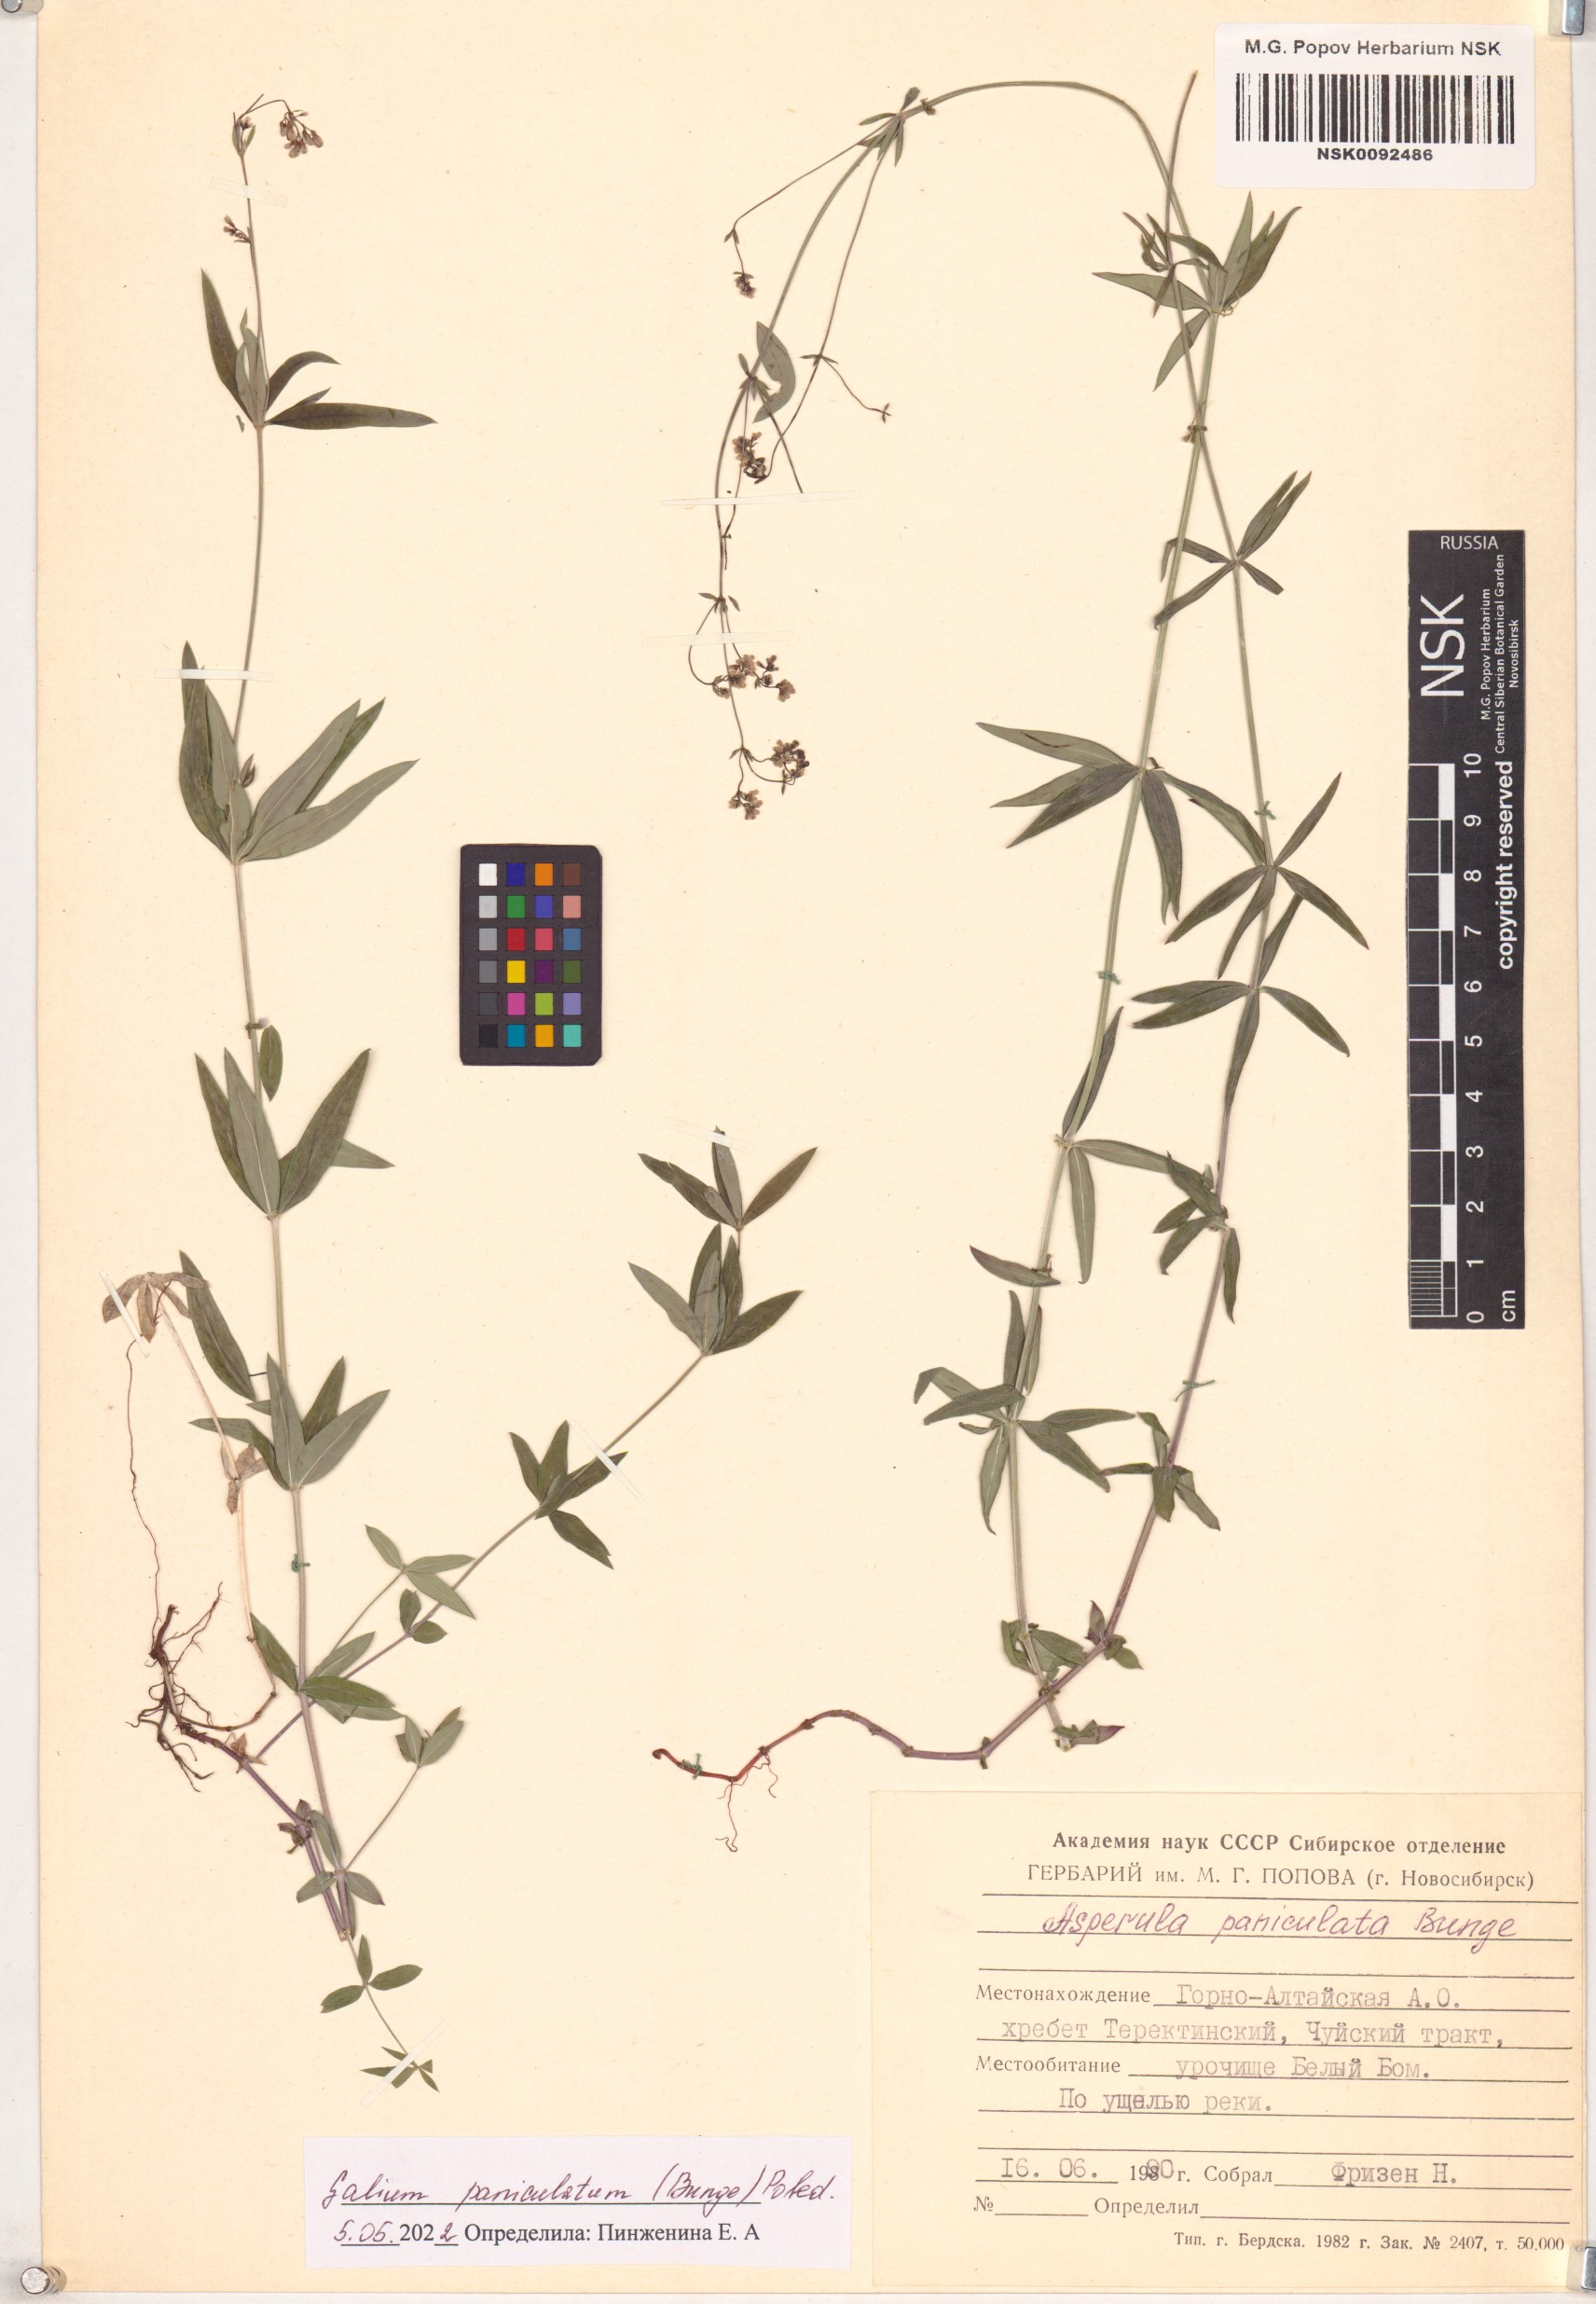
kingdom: Plantae
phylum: Tracheophyta
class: Magnoliopsida
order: Gentianales
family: Rubiaceae
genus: Galium
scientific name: Galium paniculatum
